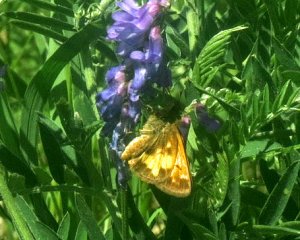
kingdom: Animalia
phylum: Arthropoda
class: Insecta
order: Lepidoptera
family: Hesperiidae
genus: Lon
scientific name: Lon hobomok
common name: Hobomok Skipper
